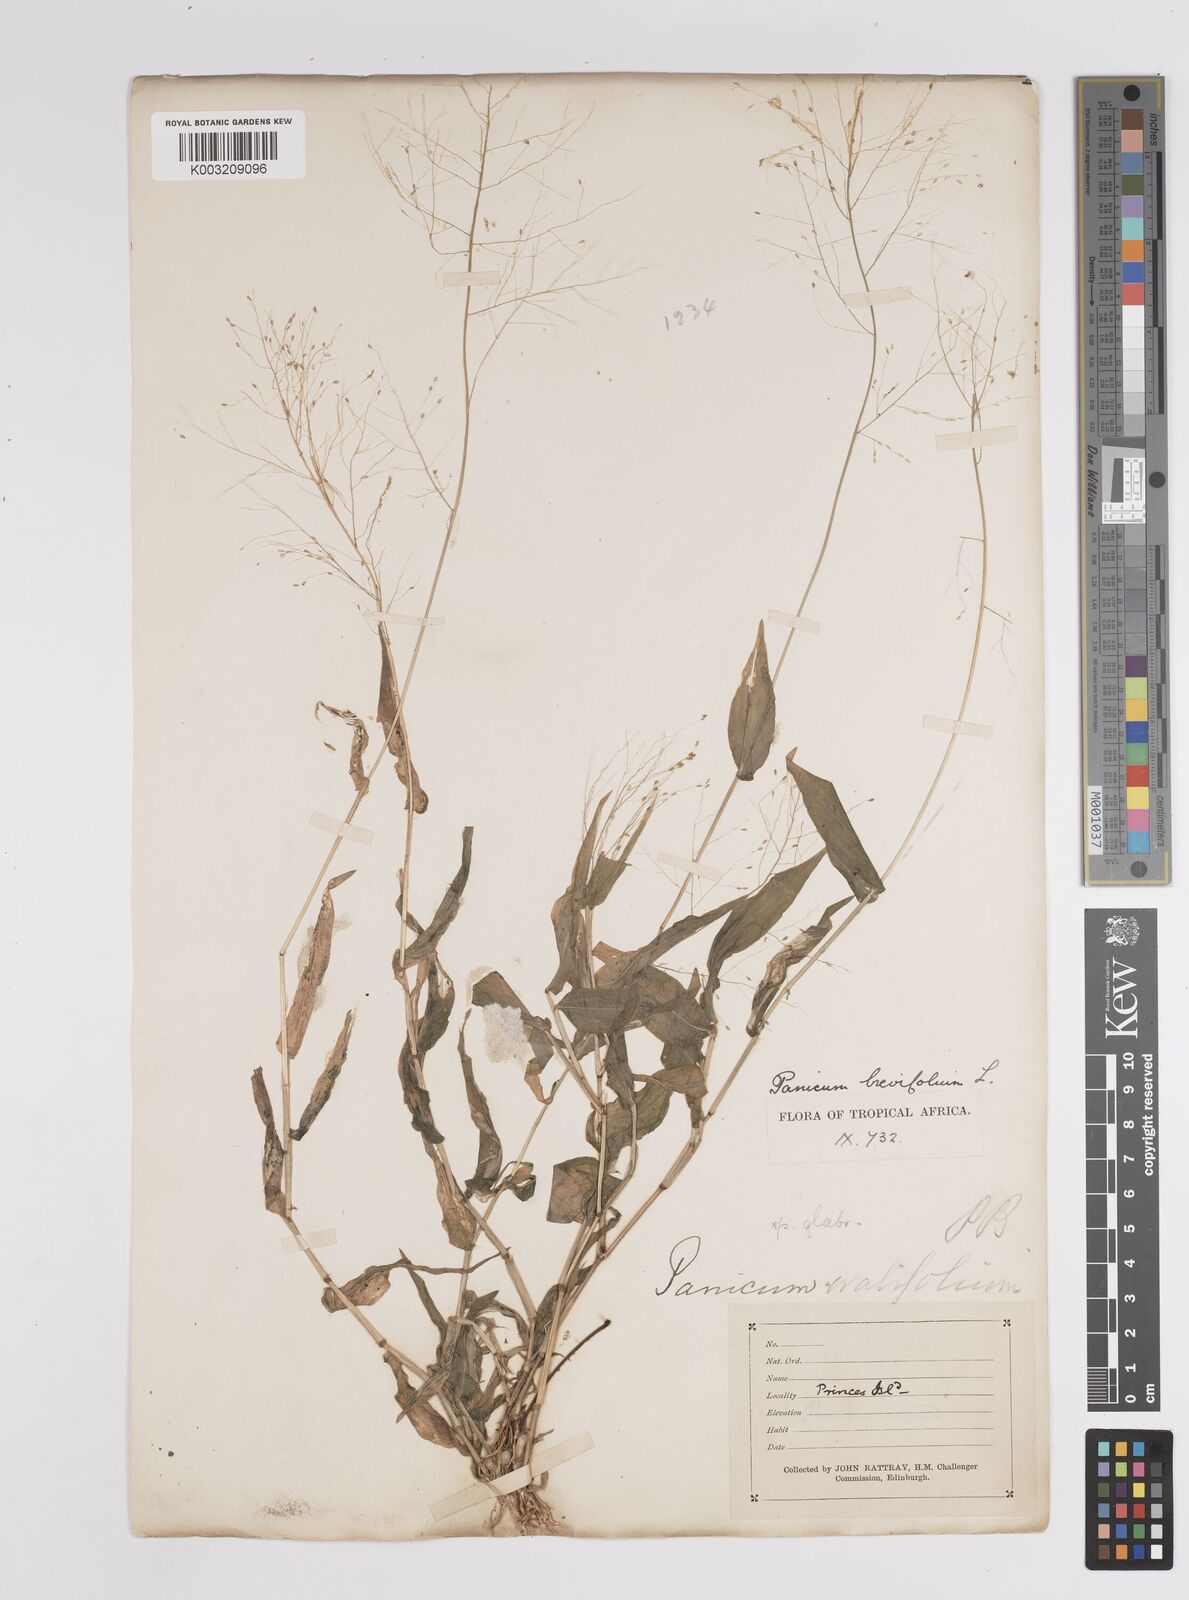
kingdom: Plantae
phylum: Tracheophyta
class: Liliopsida
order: Poales
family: Poaceae
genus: Panicum
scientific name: Panicum brevifolium
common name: Shortleaf panic grass
